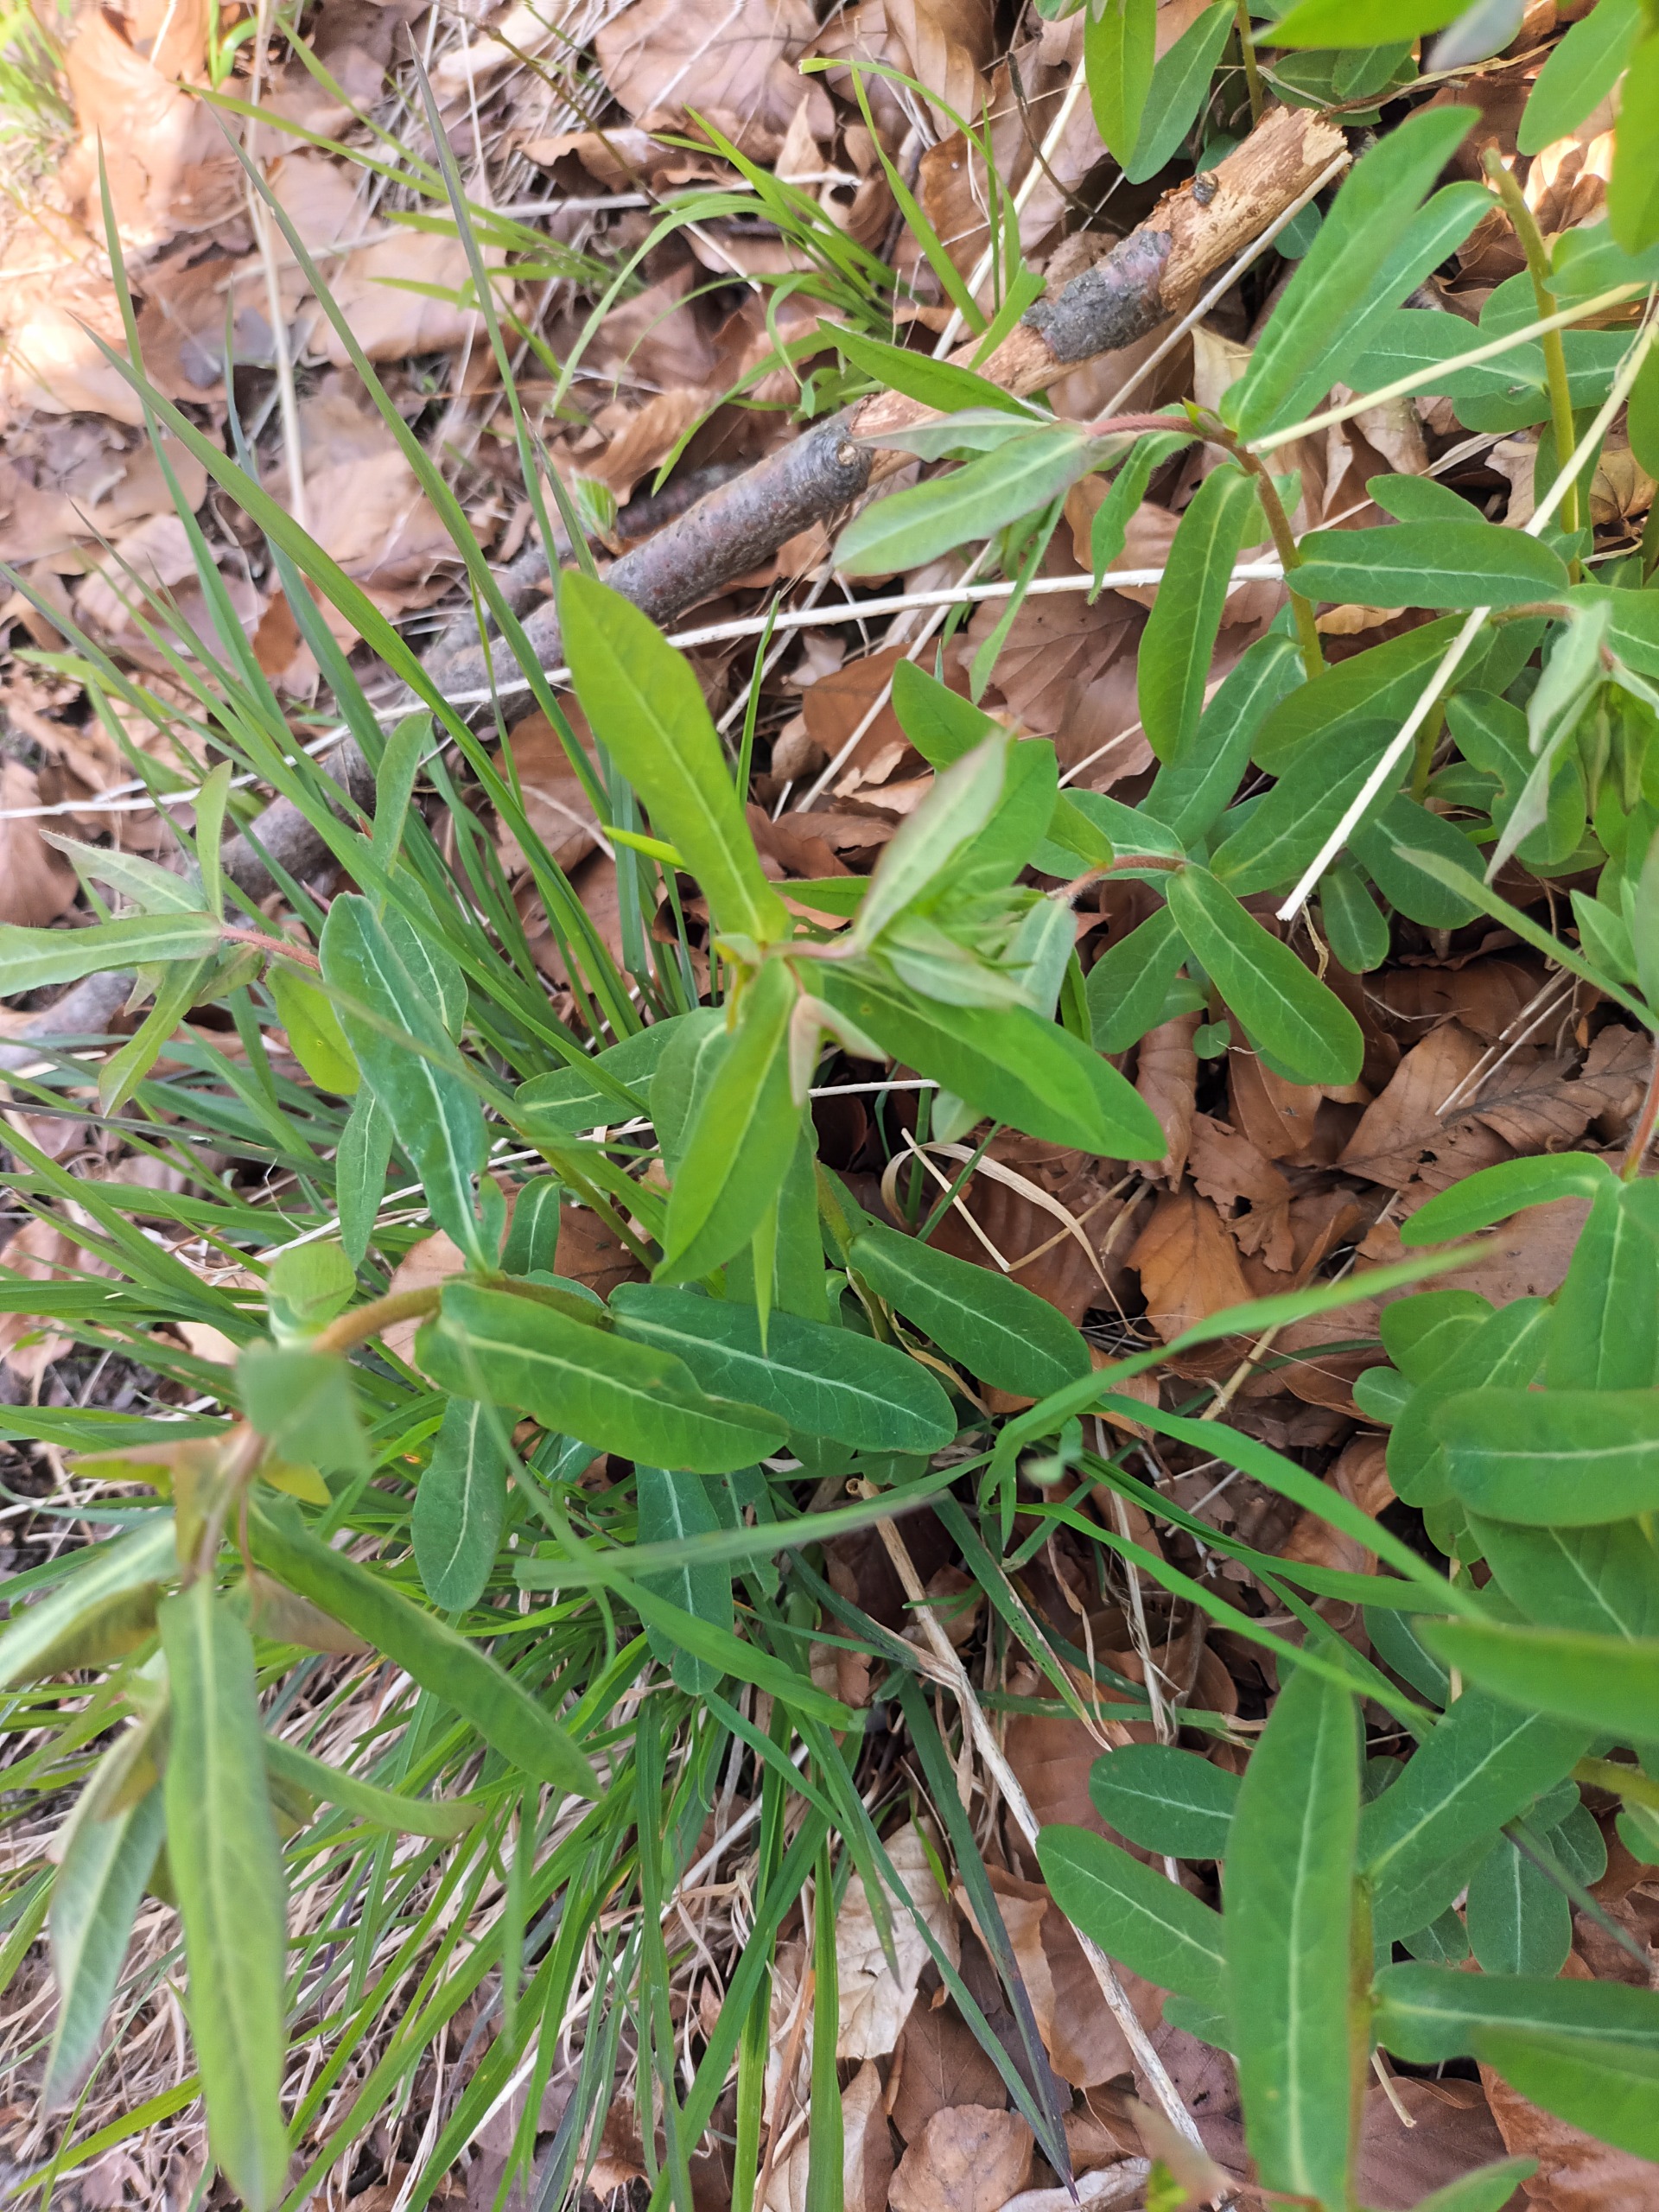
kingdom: Plantae
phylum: Tracheophyta
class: Magnoliopsida
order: Malpighiales
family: Euphorbiaceae
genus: Euphorbia
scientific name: Euphorbia dulcis
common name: Knold-vortemælk
